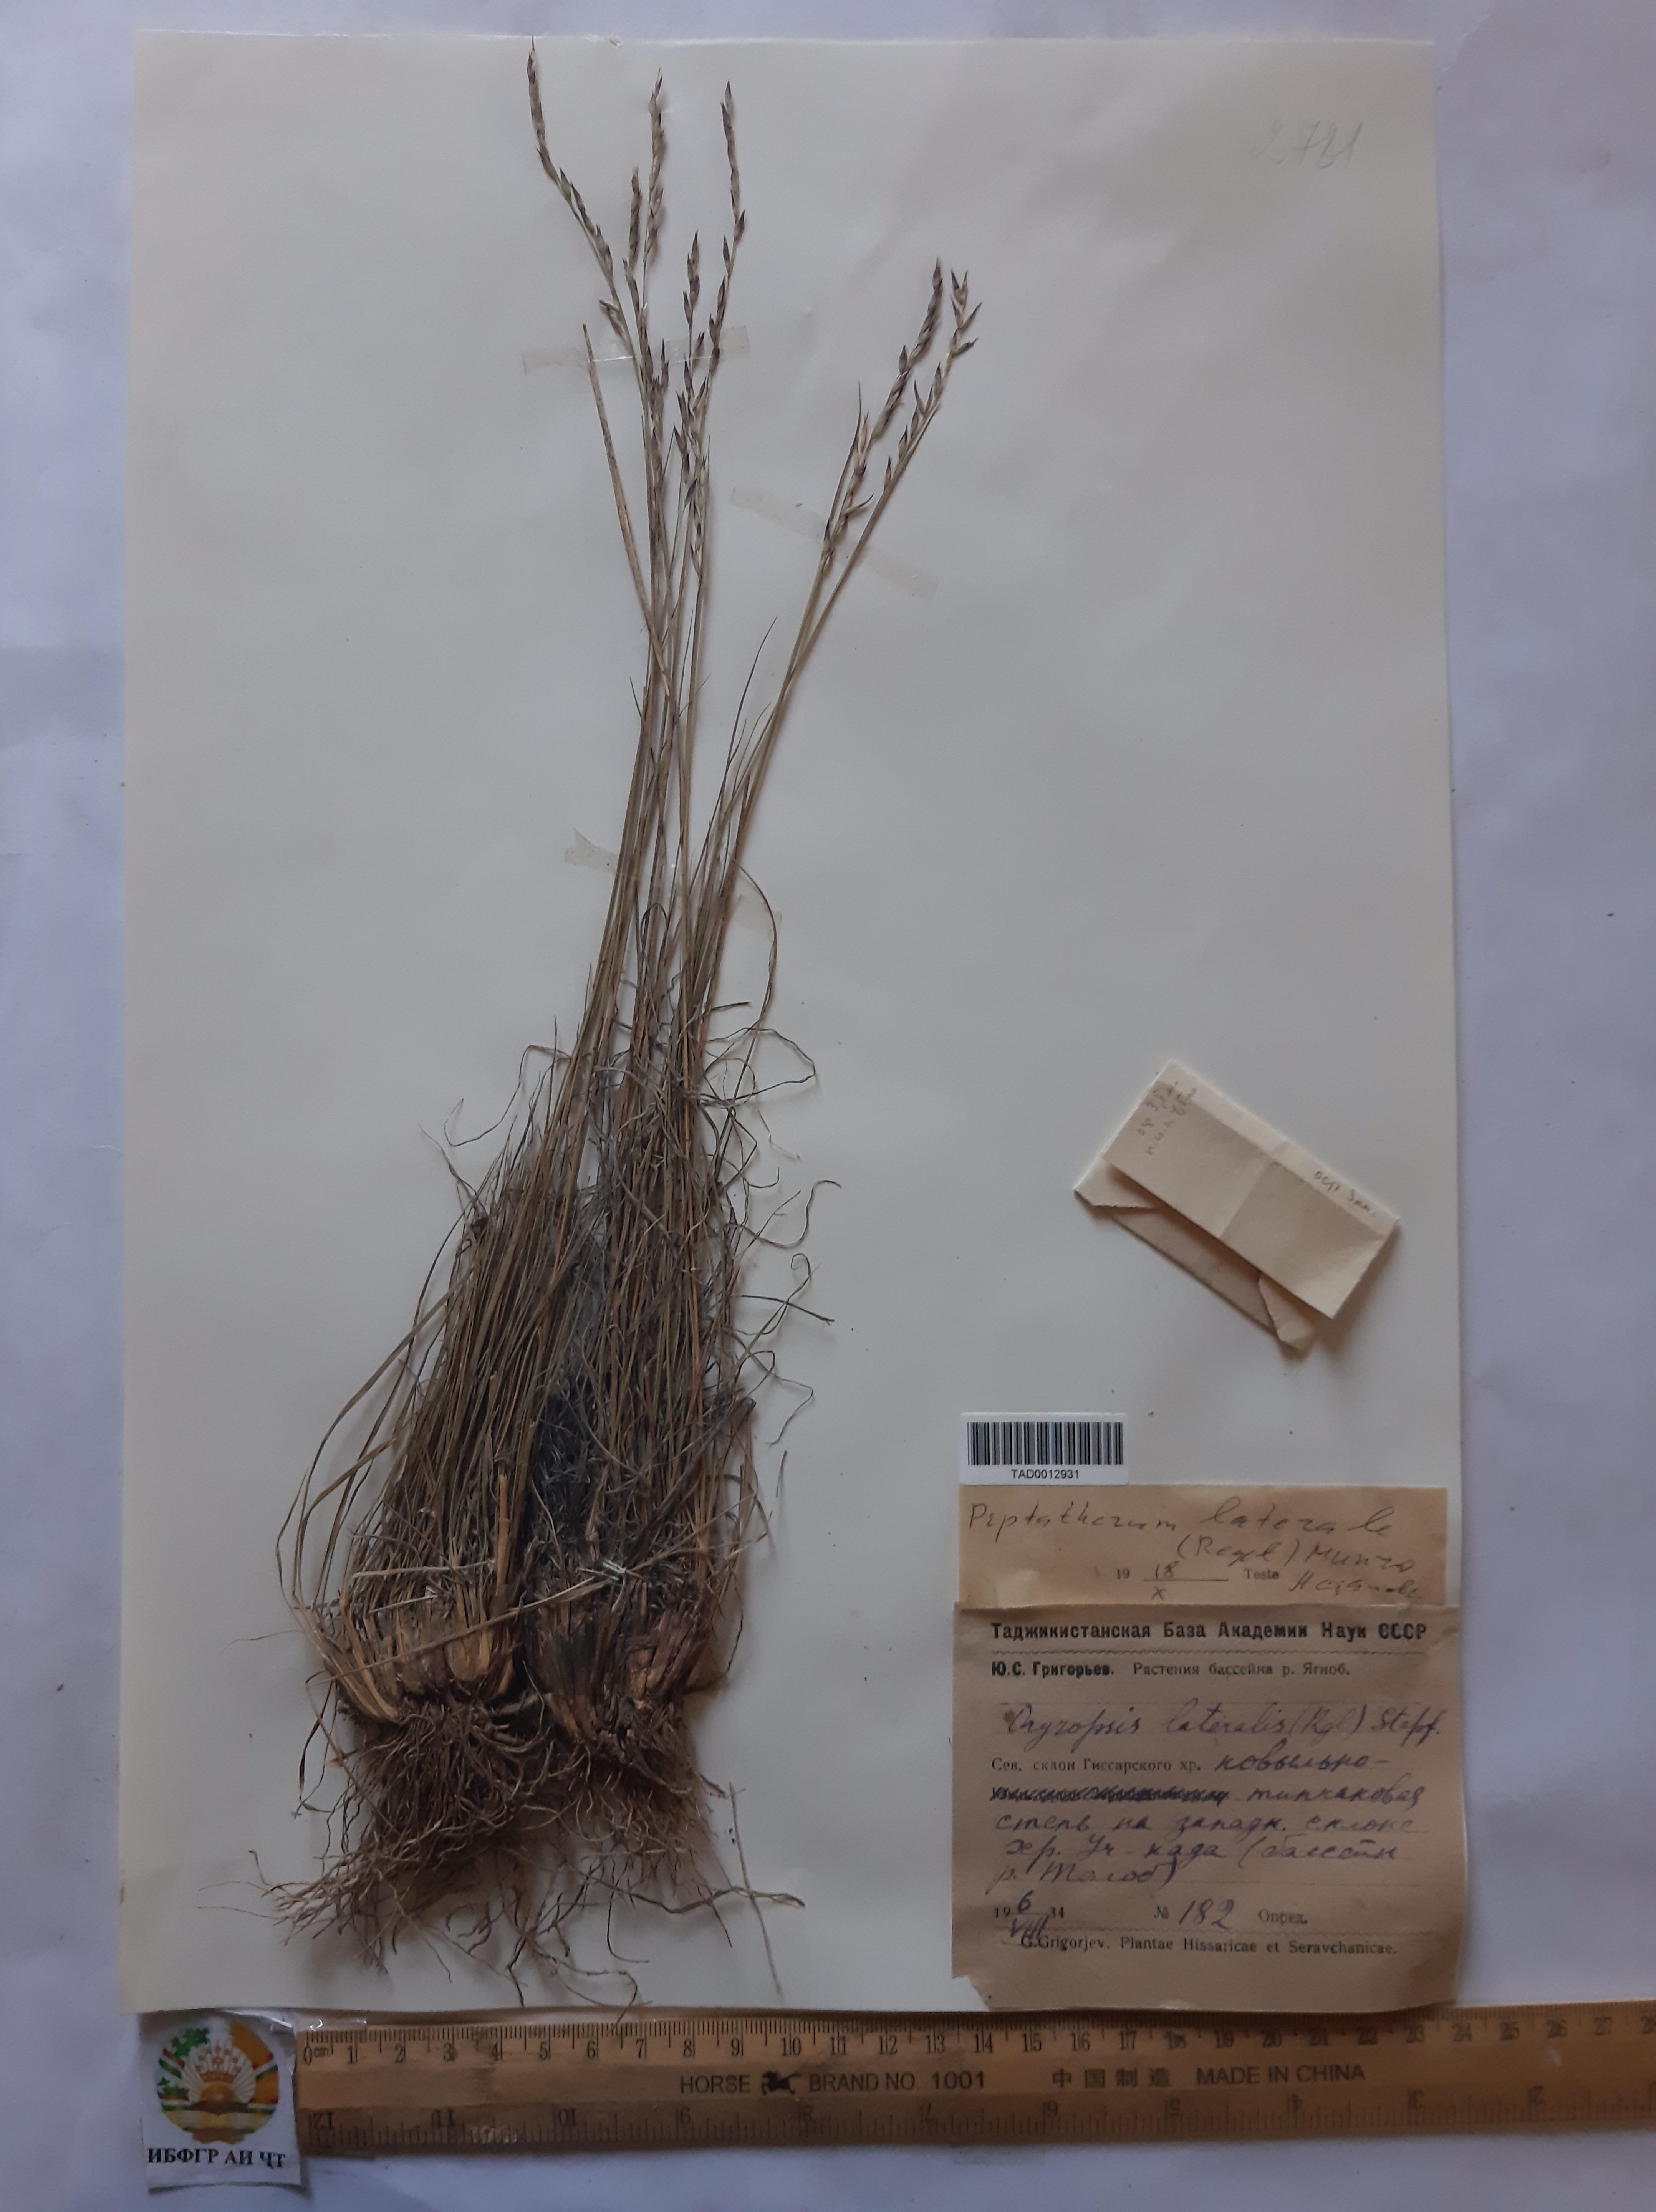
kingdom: Plantae
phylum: Tracheophyta
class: Liliopsida
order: Poales
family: Poaceae
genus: Piptatherum
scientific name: Piptatherum laterale
